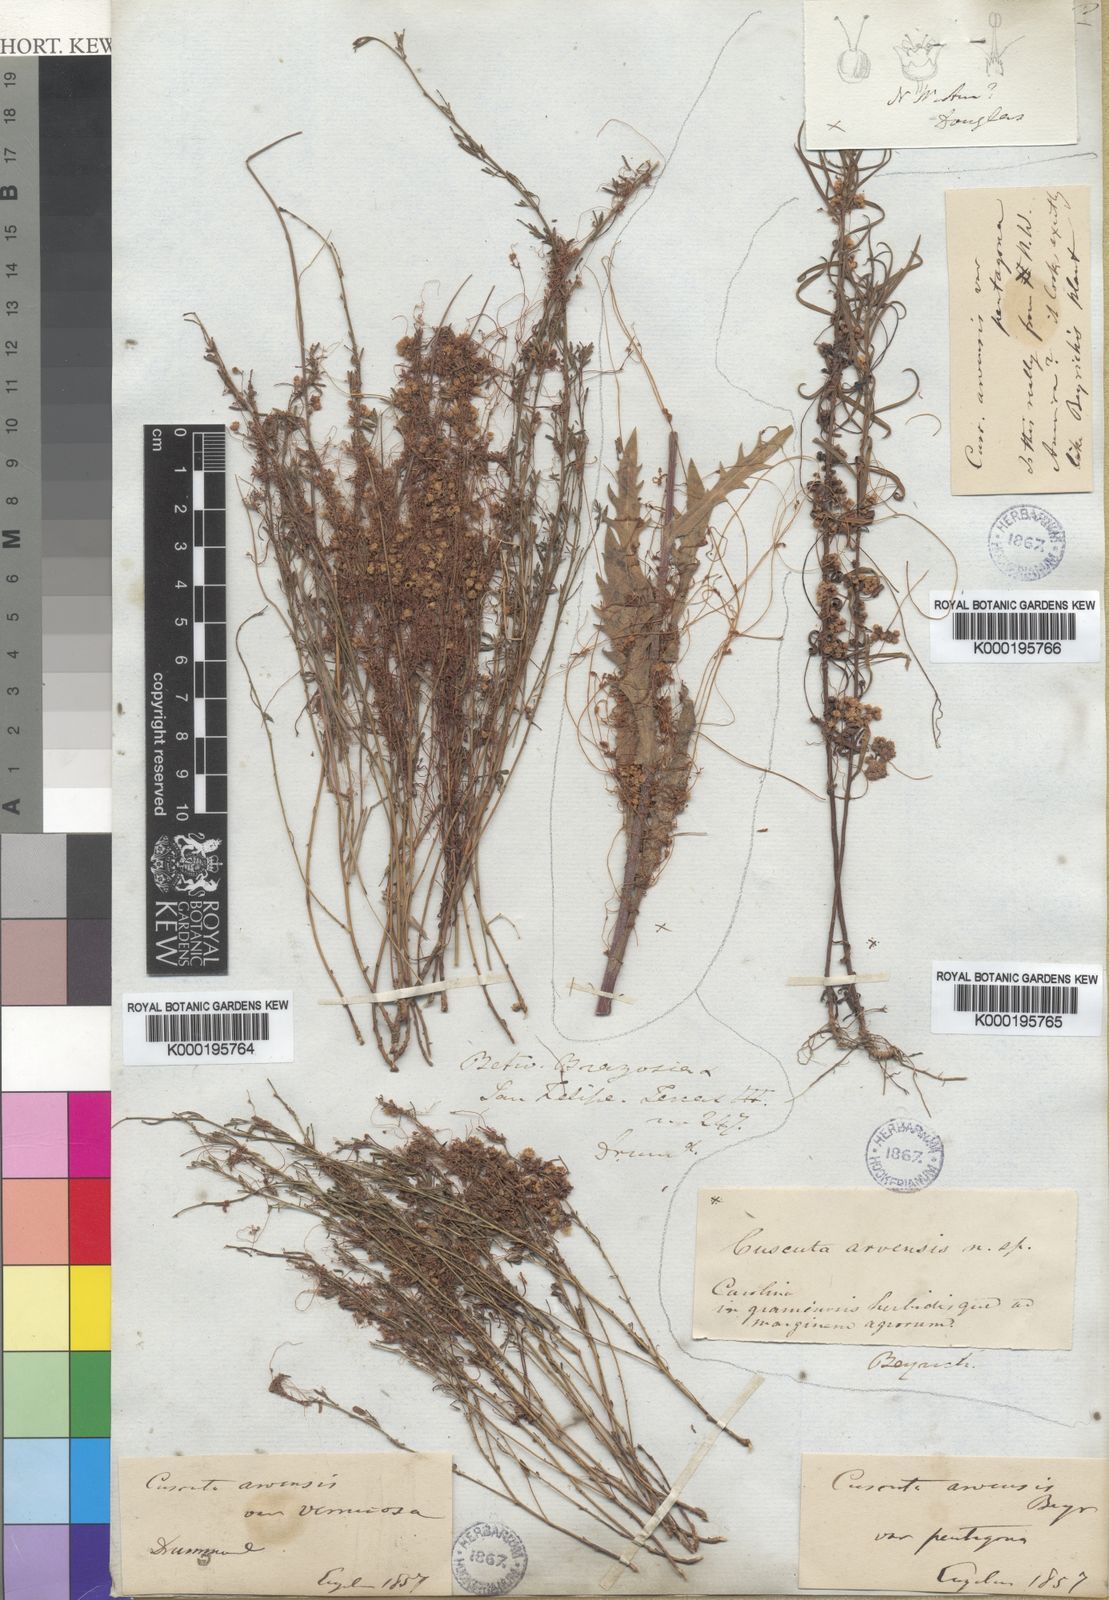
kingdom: Plantae
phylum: Tracheophyta
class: Magnoliopsida
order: Solanales
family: Convolvulaceae
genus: Cuscuta
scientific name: Cuscuta pentagona
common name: Fiveangled dodder
